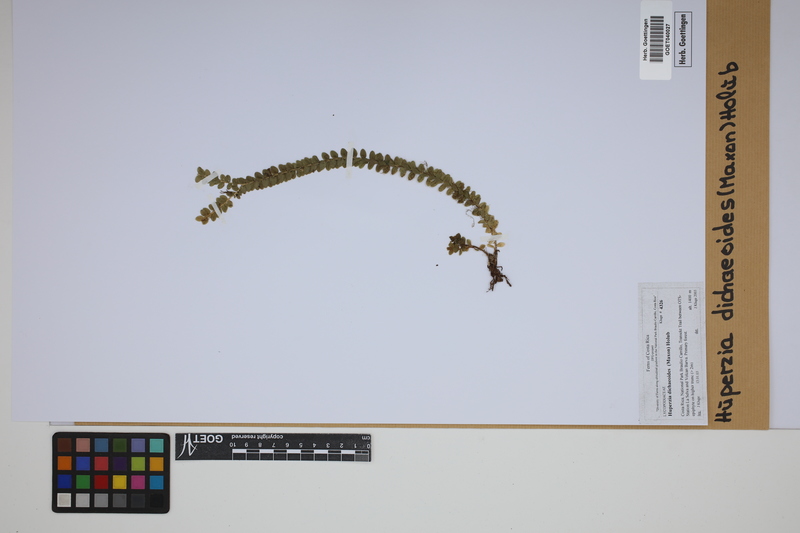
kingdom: Plantae
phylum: Tracheophyta
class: Lycopodiopsida
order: Lycopodiales
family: Lycopodiaceae
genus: Phlegmariurus
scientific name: Phlegmariurus dichaeoides
